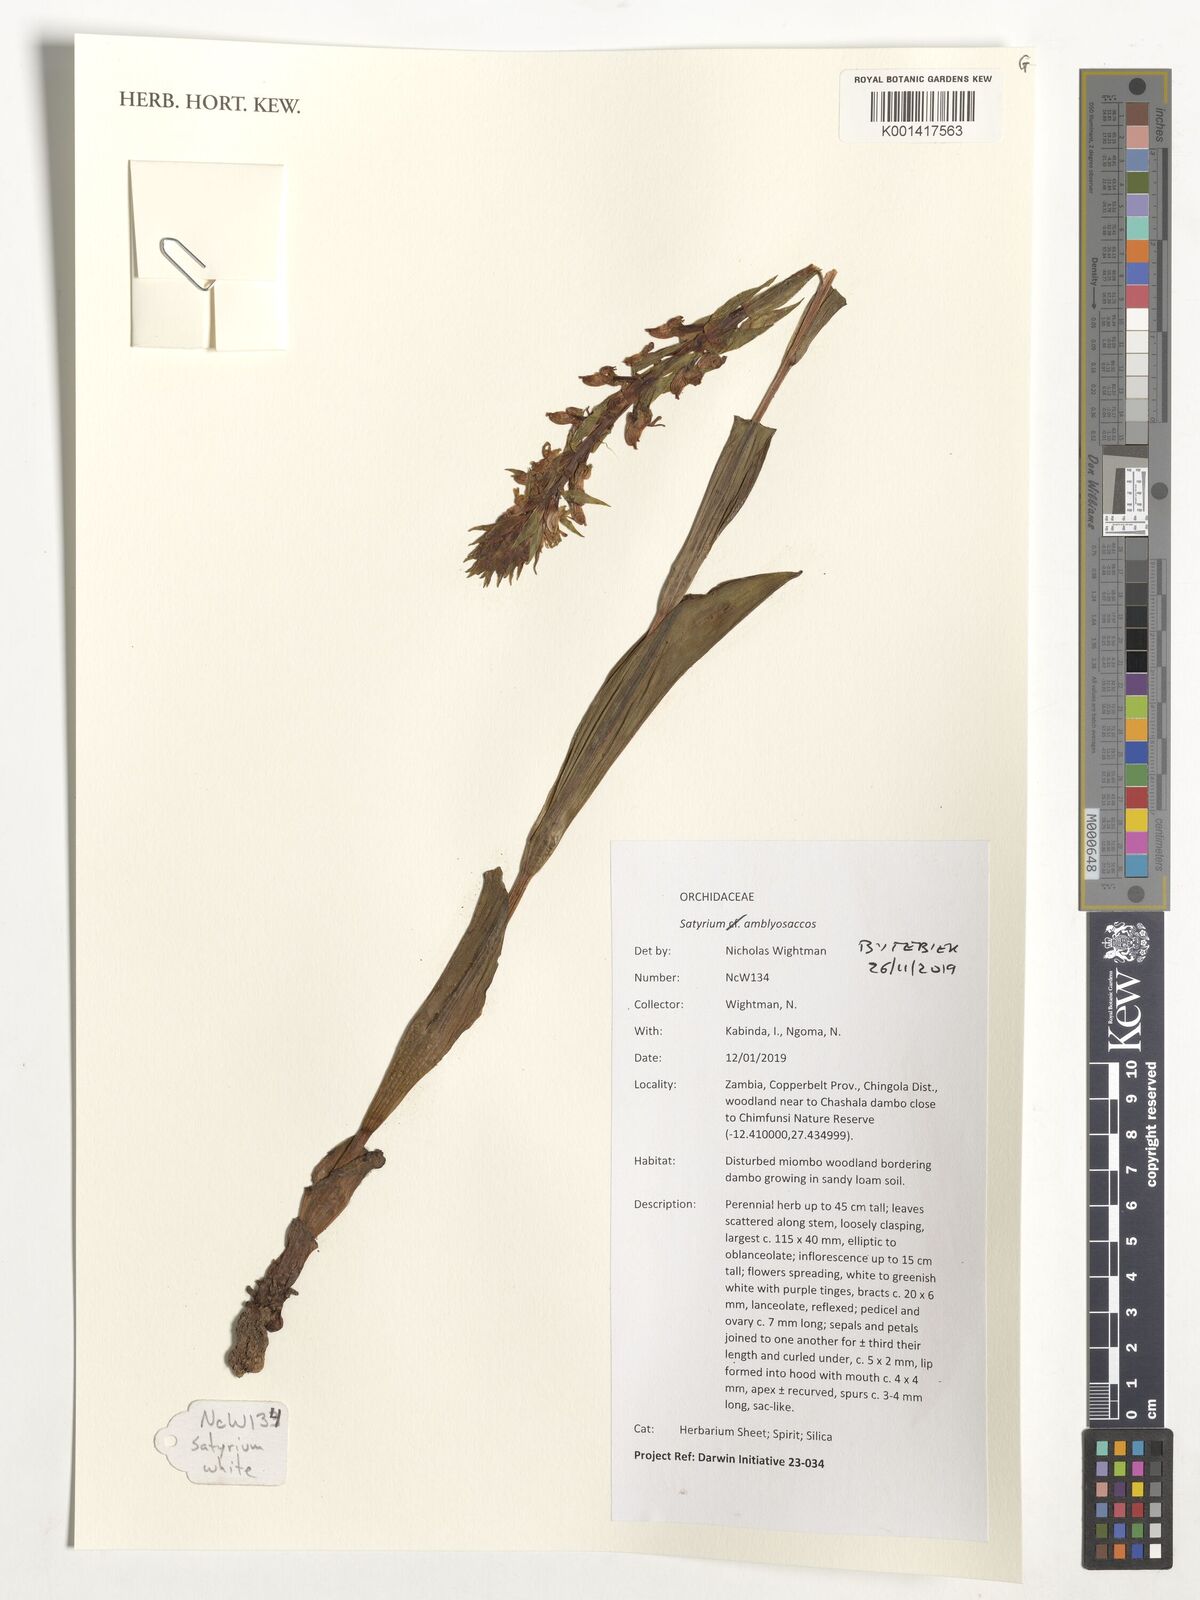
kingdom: Plantae
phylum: Tracheophyta
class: Liliopsida
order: Asparagales
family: Orchidaceae
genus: Satyrium
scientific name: Satyrium amblyosaccos
